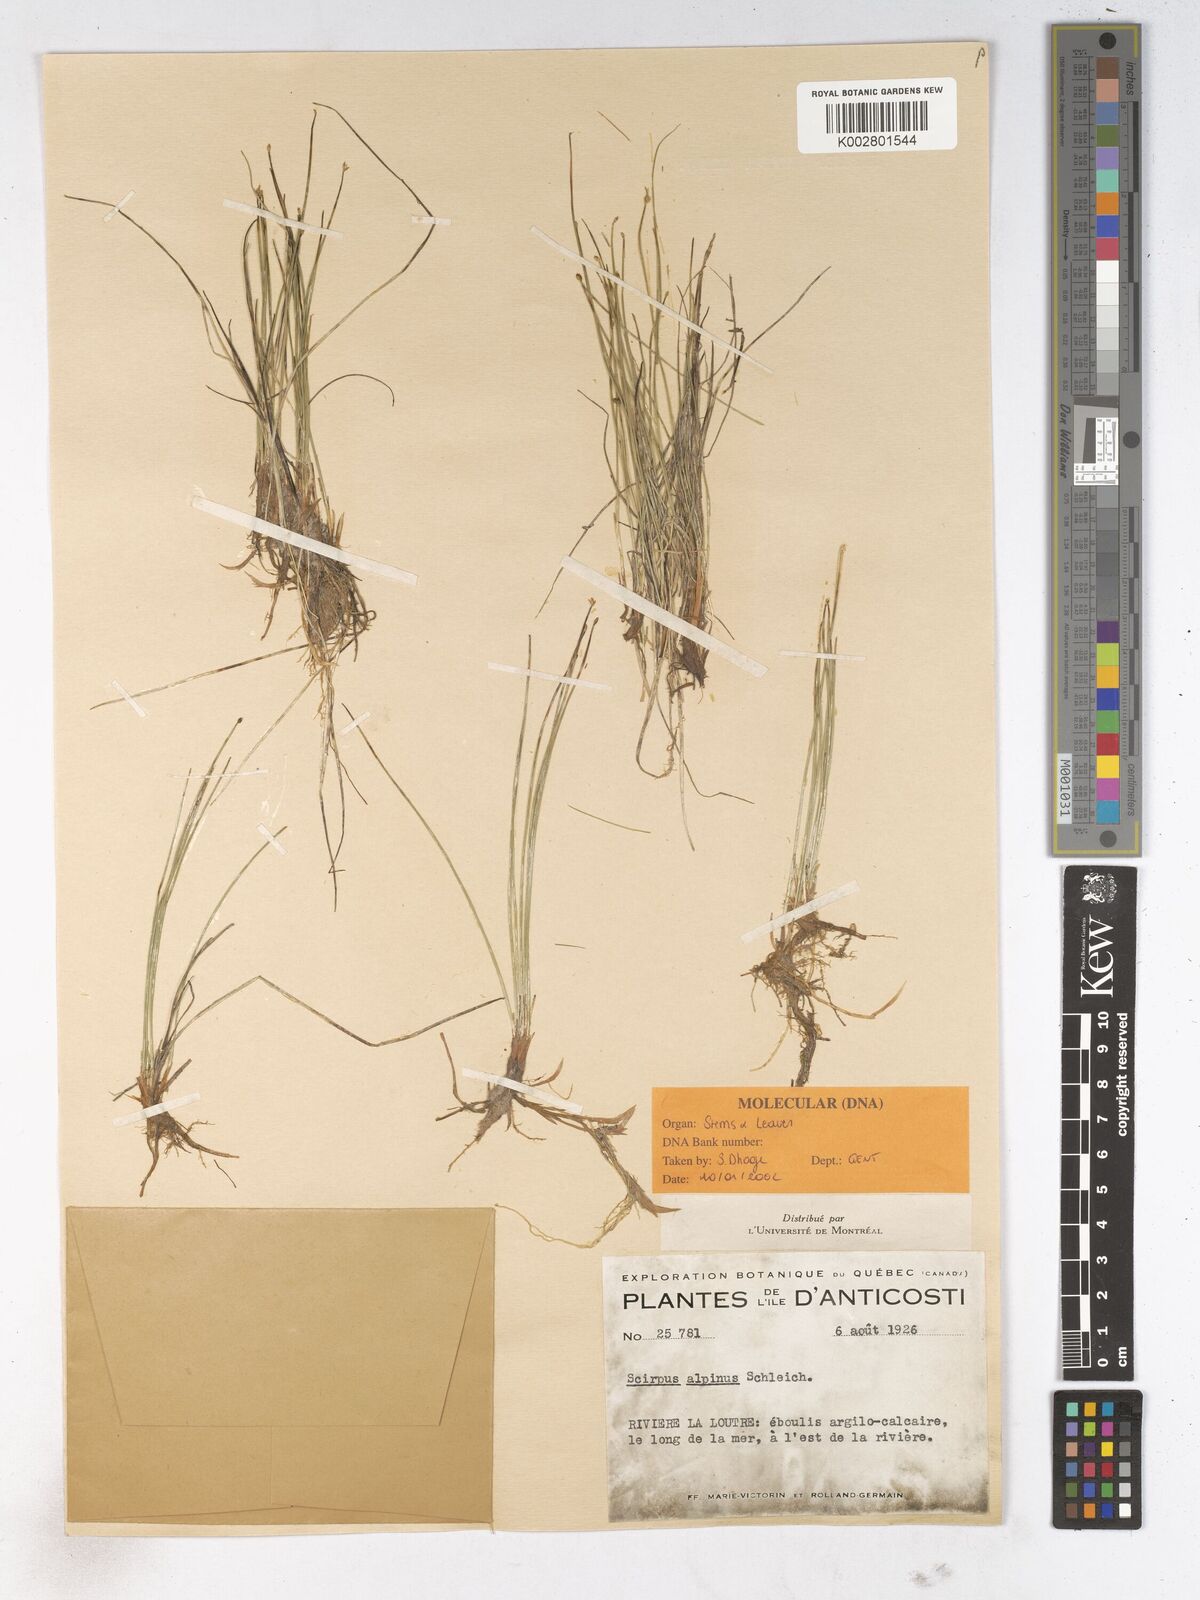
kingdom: Plantae
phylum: Tracheophyta
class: Liliopsida
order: Poales
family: Cyperaceae
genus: Trichophorum
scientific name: Trichophorum pumilum
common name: Rolland's bulrush
